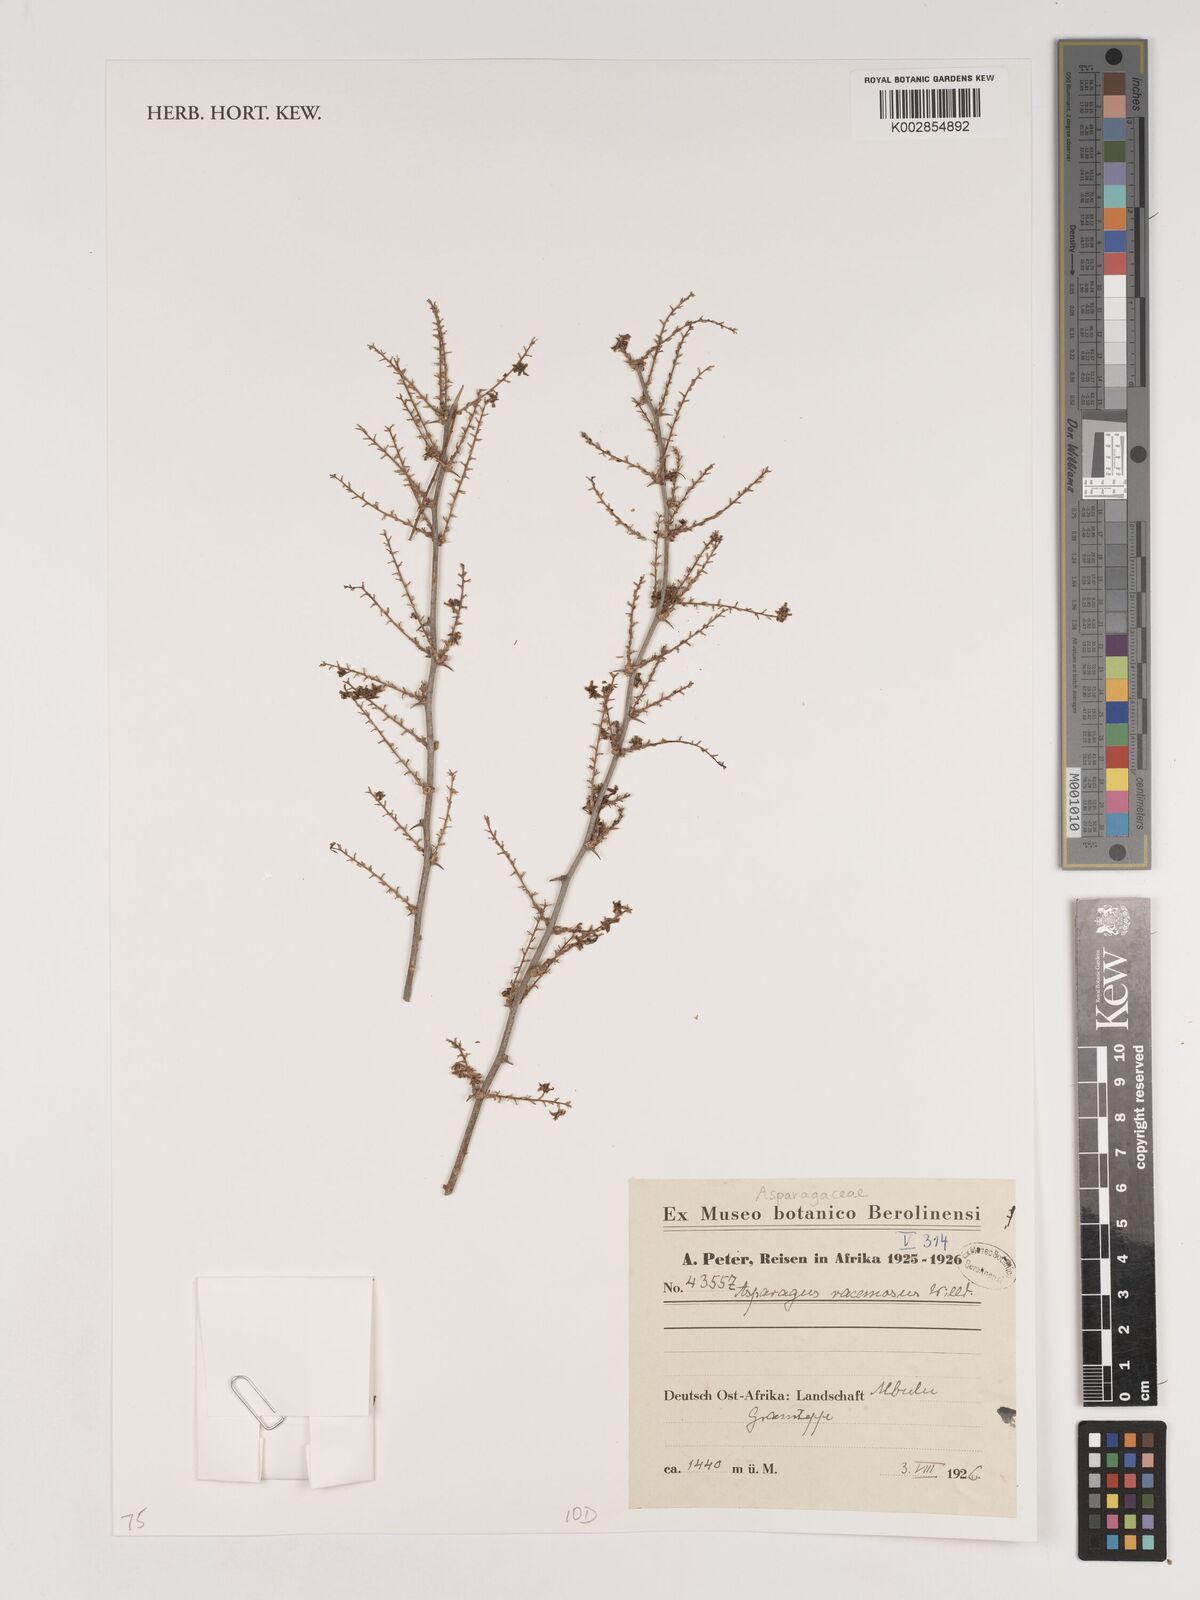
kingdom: Plantae
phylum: Tracheophyta
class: Liliopsida
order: Asparagales
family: Asparagaceae
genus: Asparagus
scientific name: Asparagus racemosus
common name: Asparagus-fern
